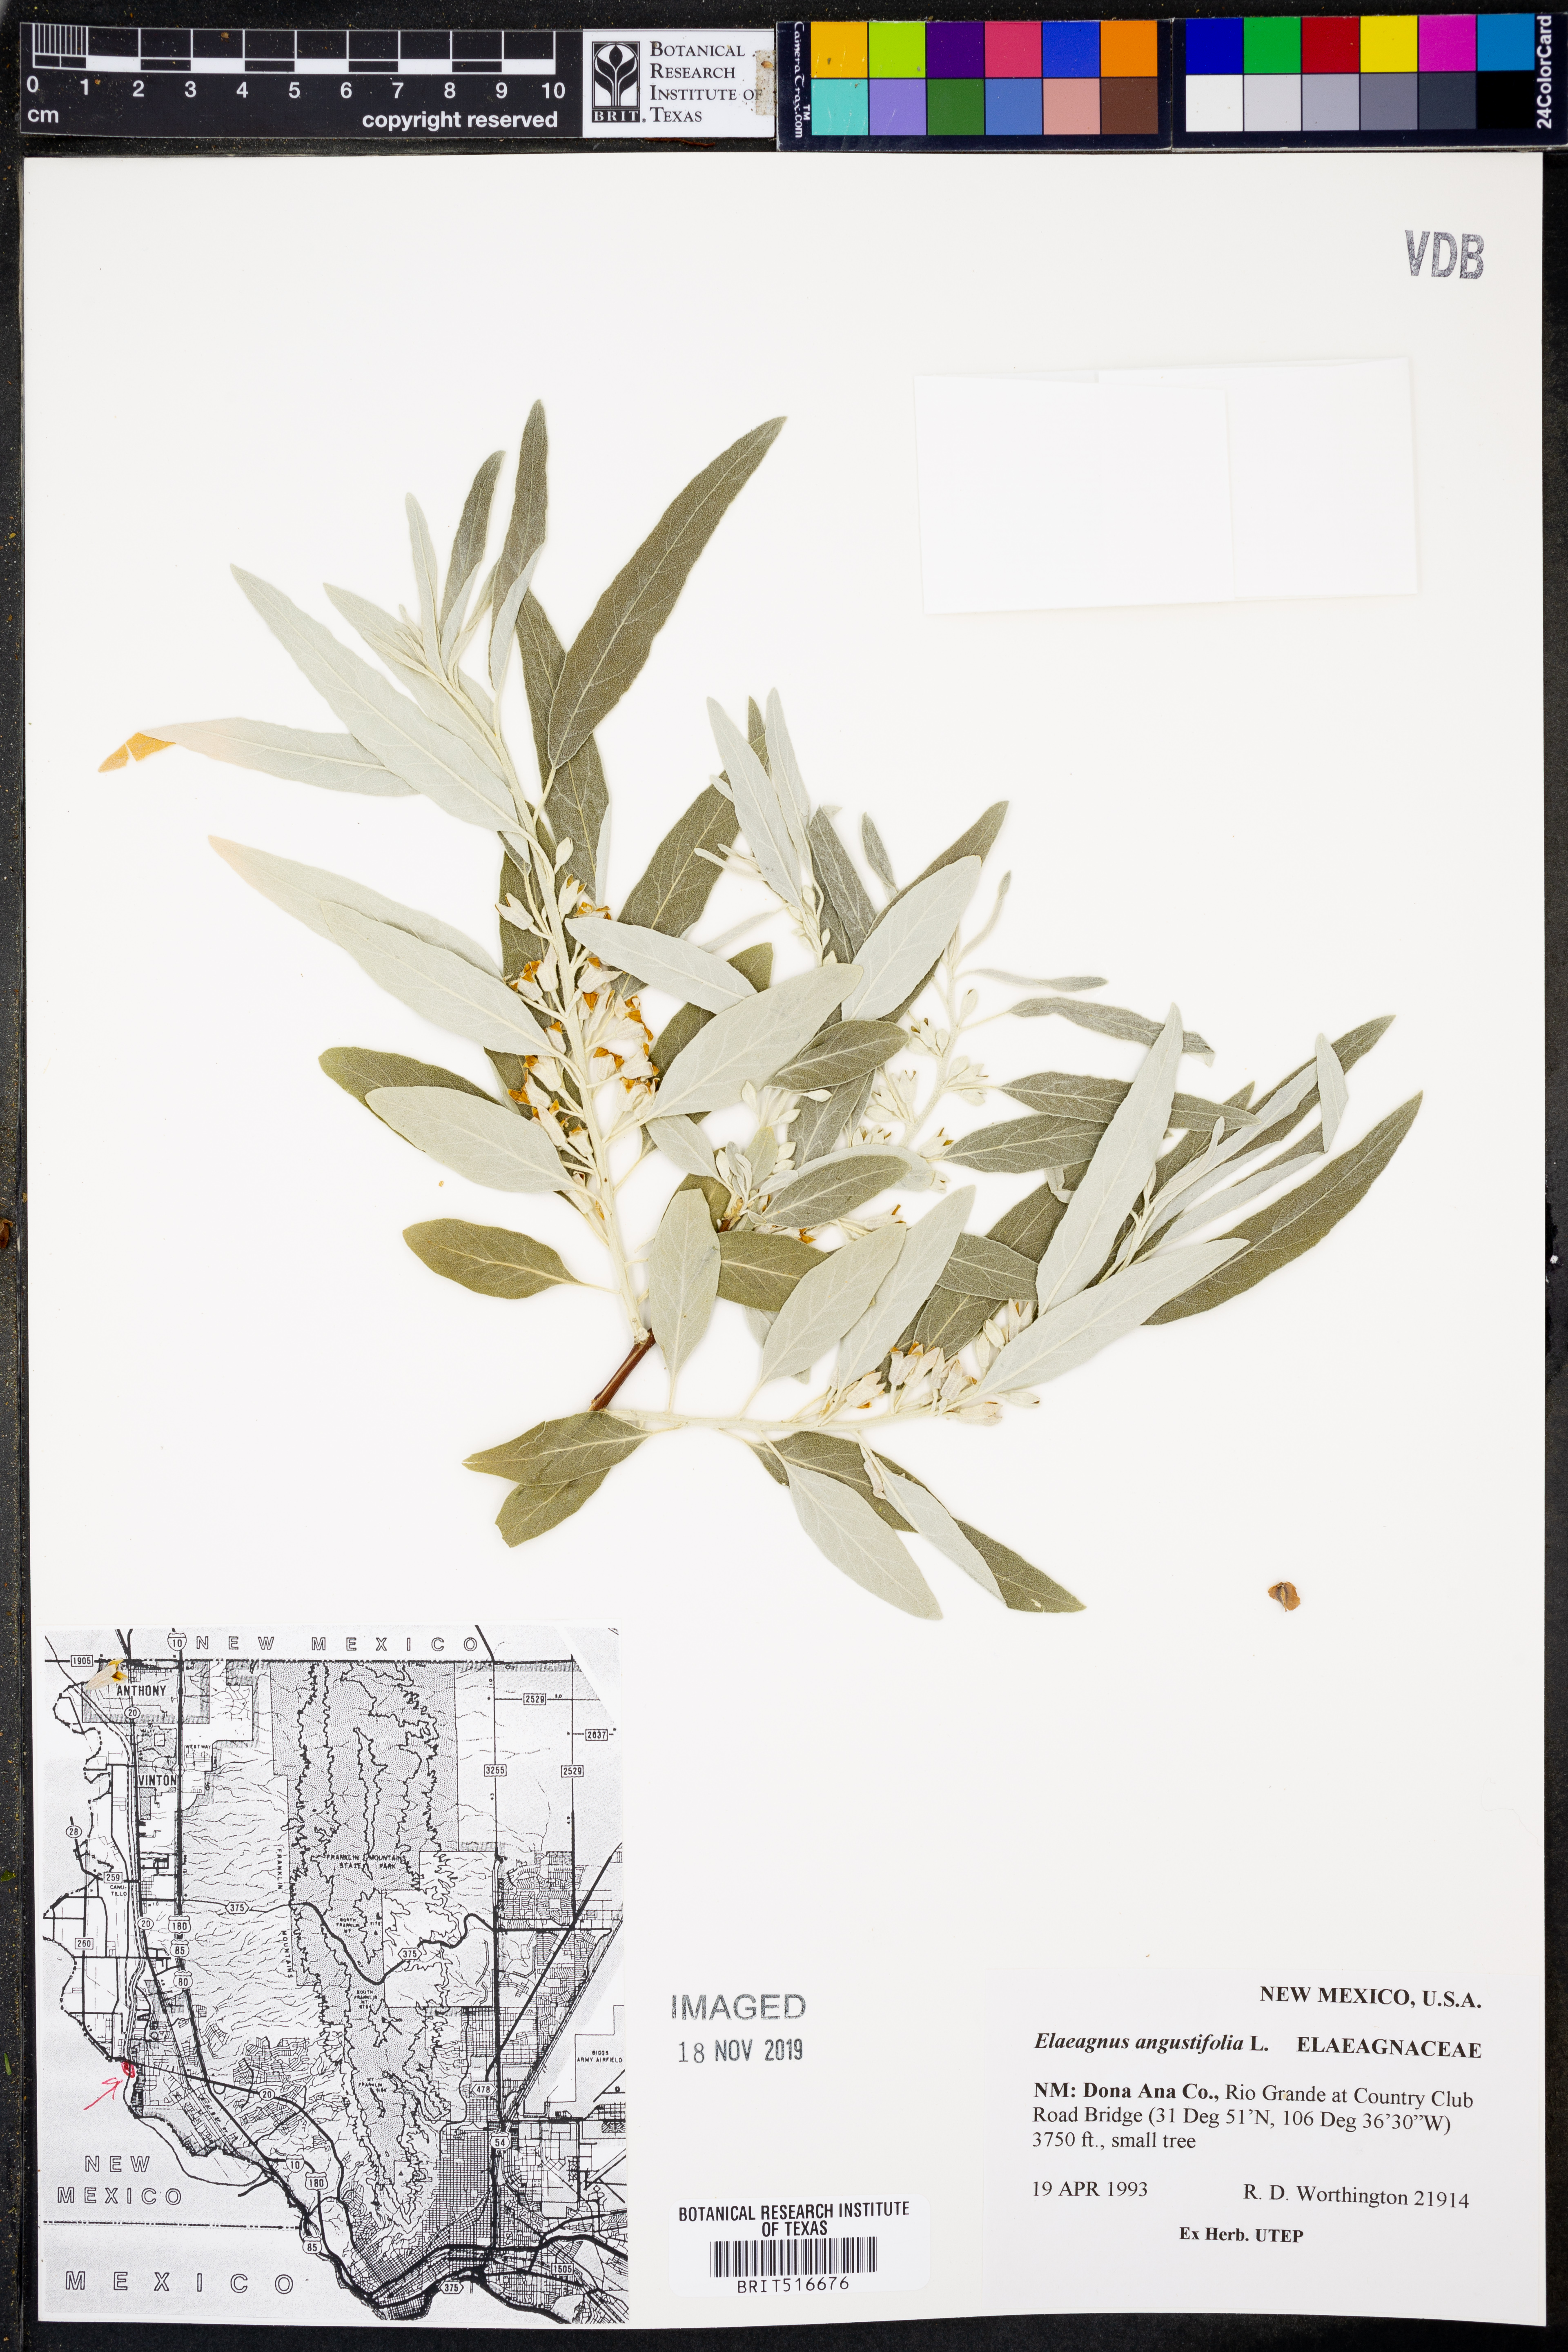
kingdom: Plantae
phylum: Tracheophyta
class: Magnoliopsida
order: Rosales
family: Elaeagnaceae
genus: Elaeagnus
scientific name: Elaeagnus angustifolia
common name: Russian olive
